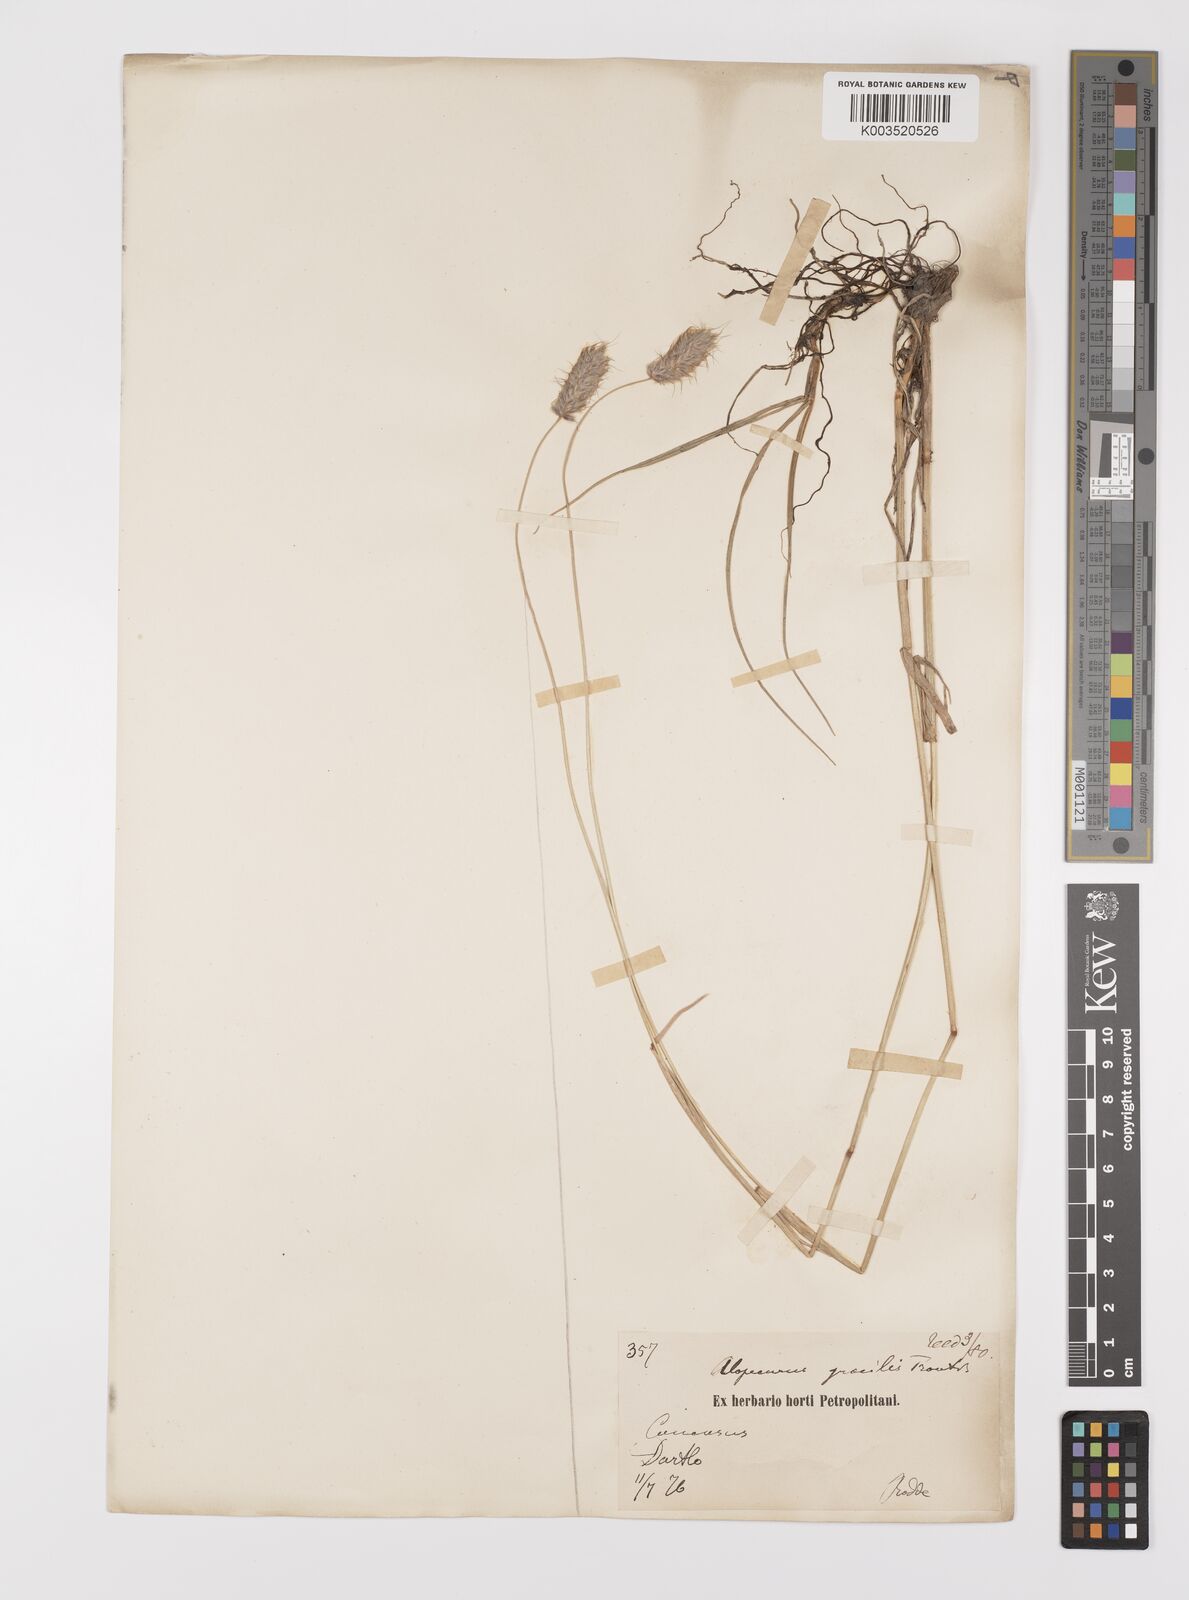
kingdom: Plantae
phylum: Tracheophyta
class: Liliopsida
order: Poales
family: Poaceae
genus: Alopecurus
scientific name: Alopecurus glacialis
